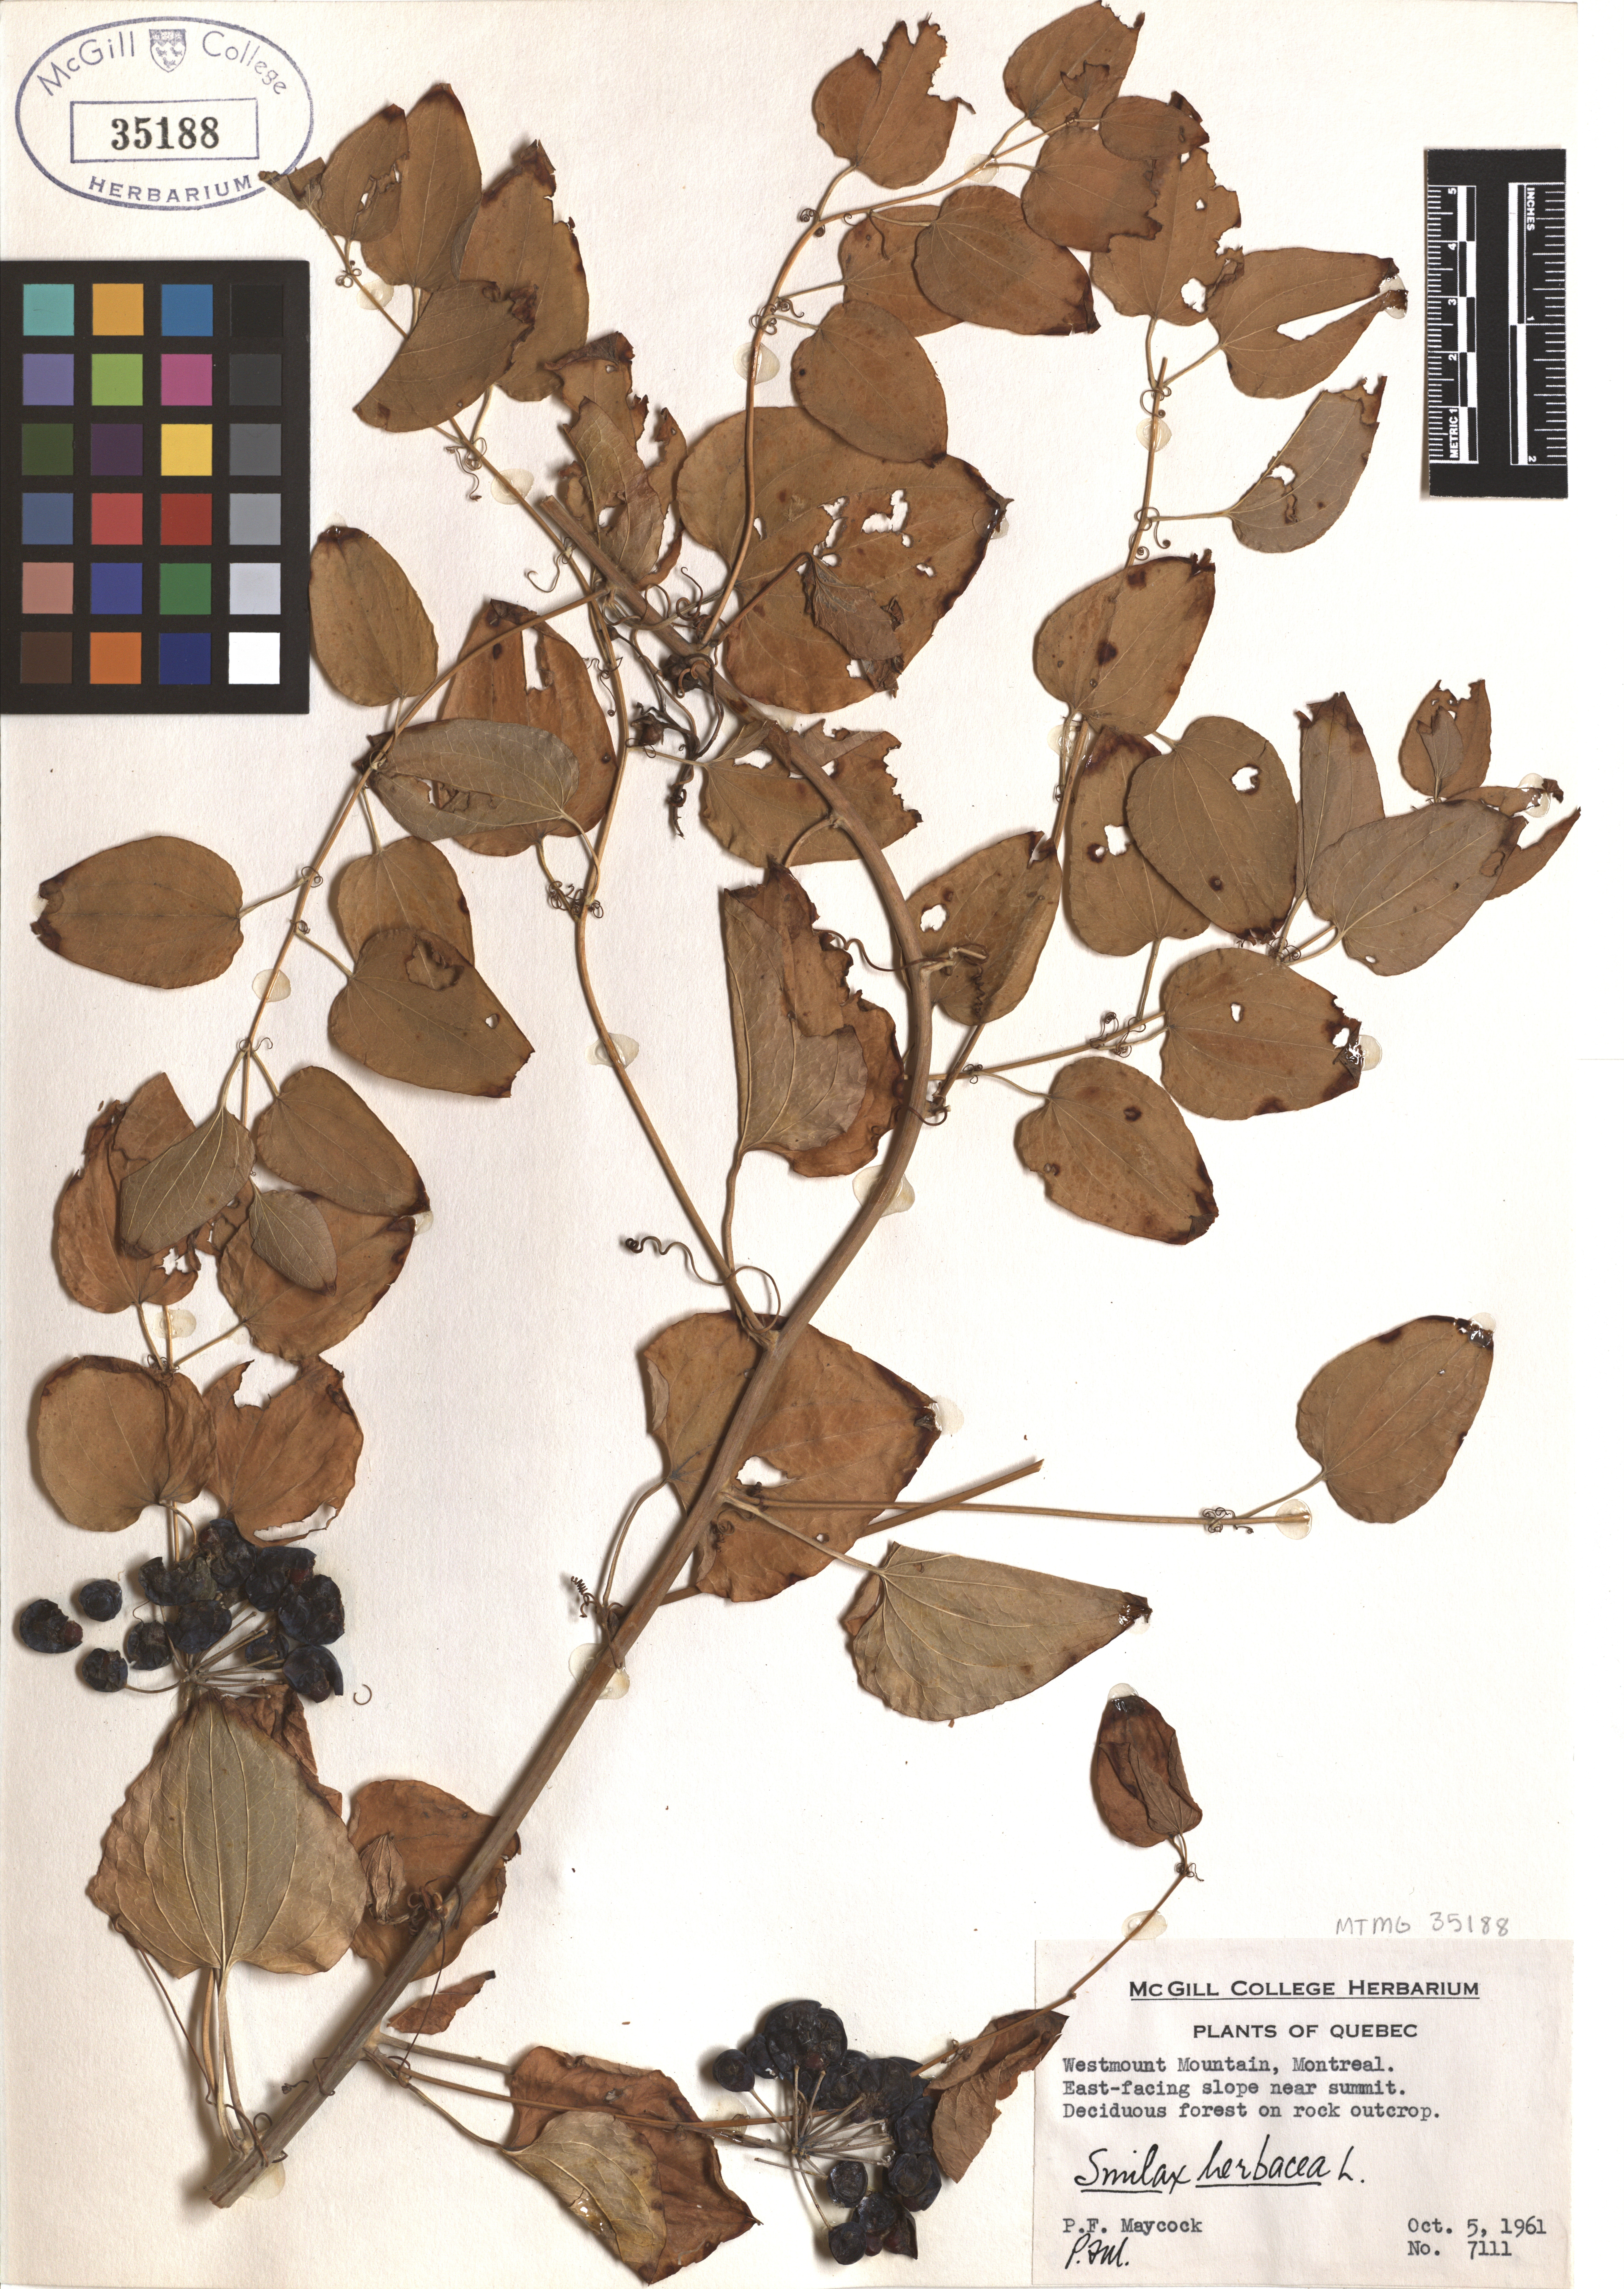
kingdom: Plantae
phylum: Tracheophyta
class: Liliopsida
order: Liliales
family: Smilacaceae
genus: Smilax
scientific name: Smilax herbacea
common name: Jacob's-ladder
